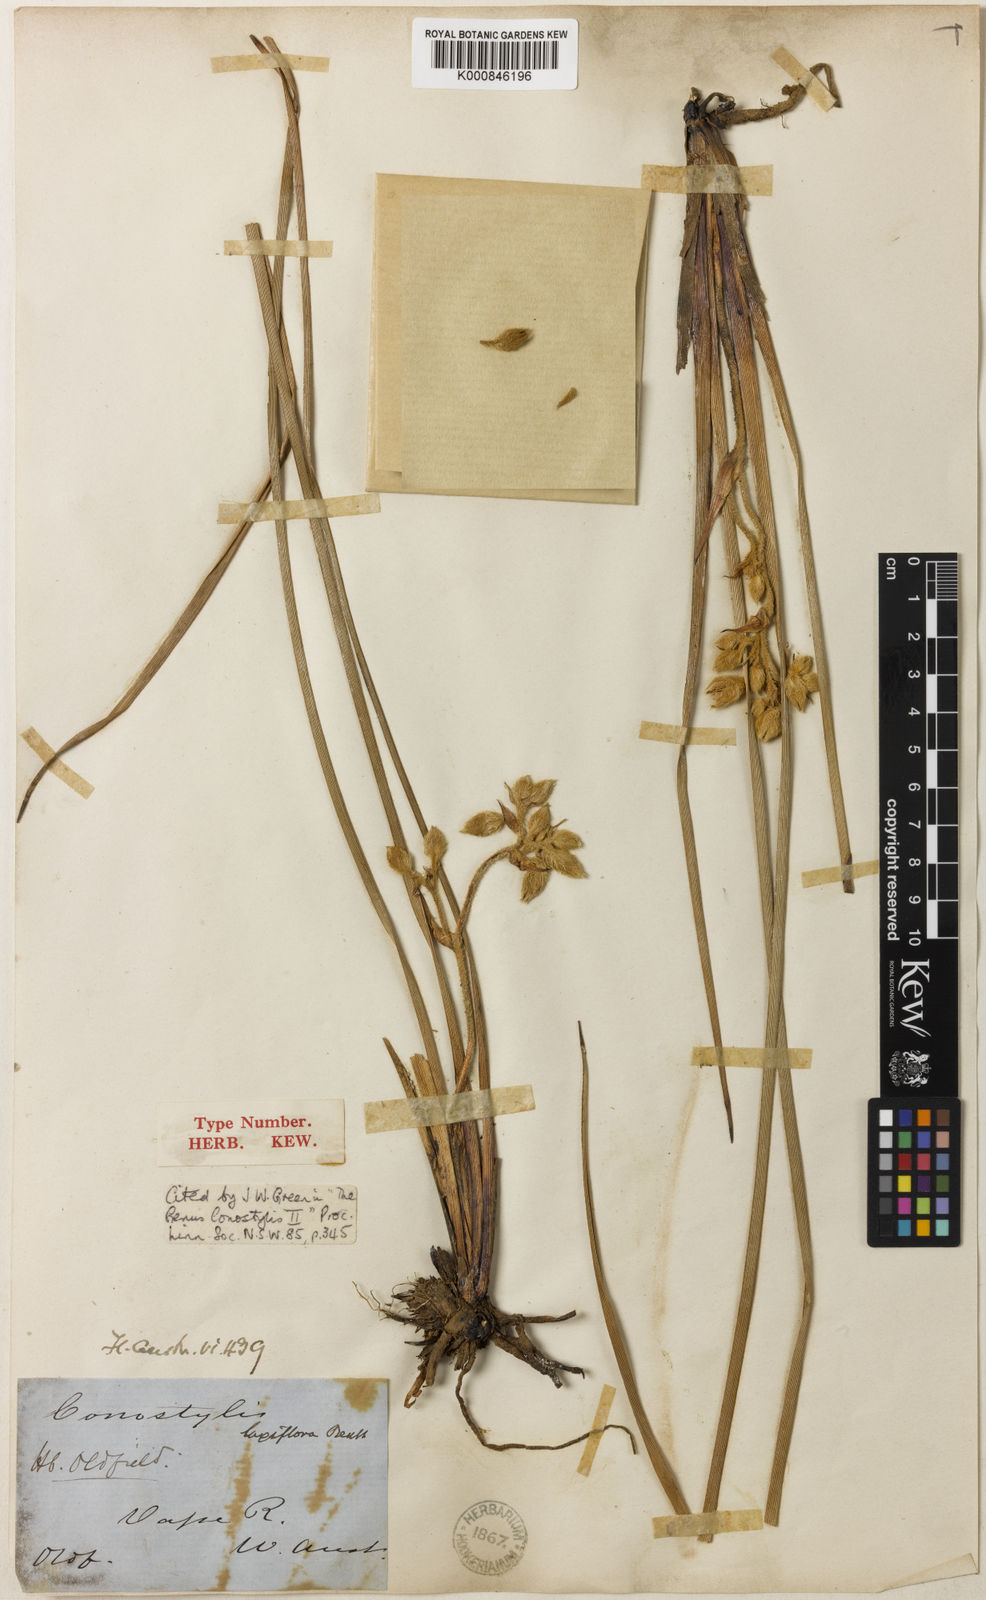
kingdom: Plantae
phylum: Tracheophyta
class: Liliopsida
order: Commelinales
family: Haemodoraceae
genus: Conostylis
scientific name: Conostylis serrulata
